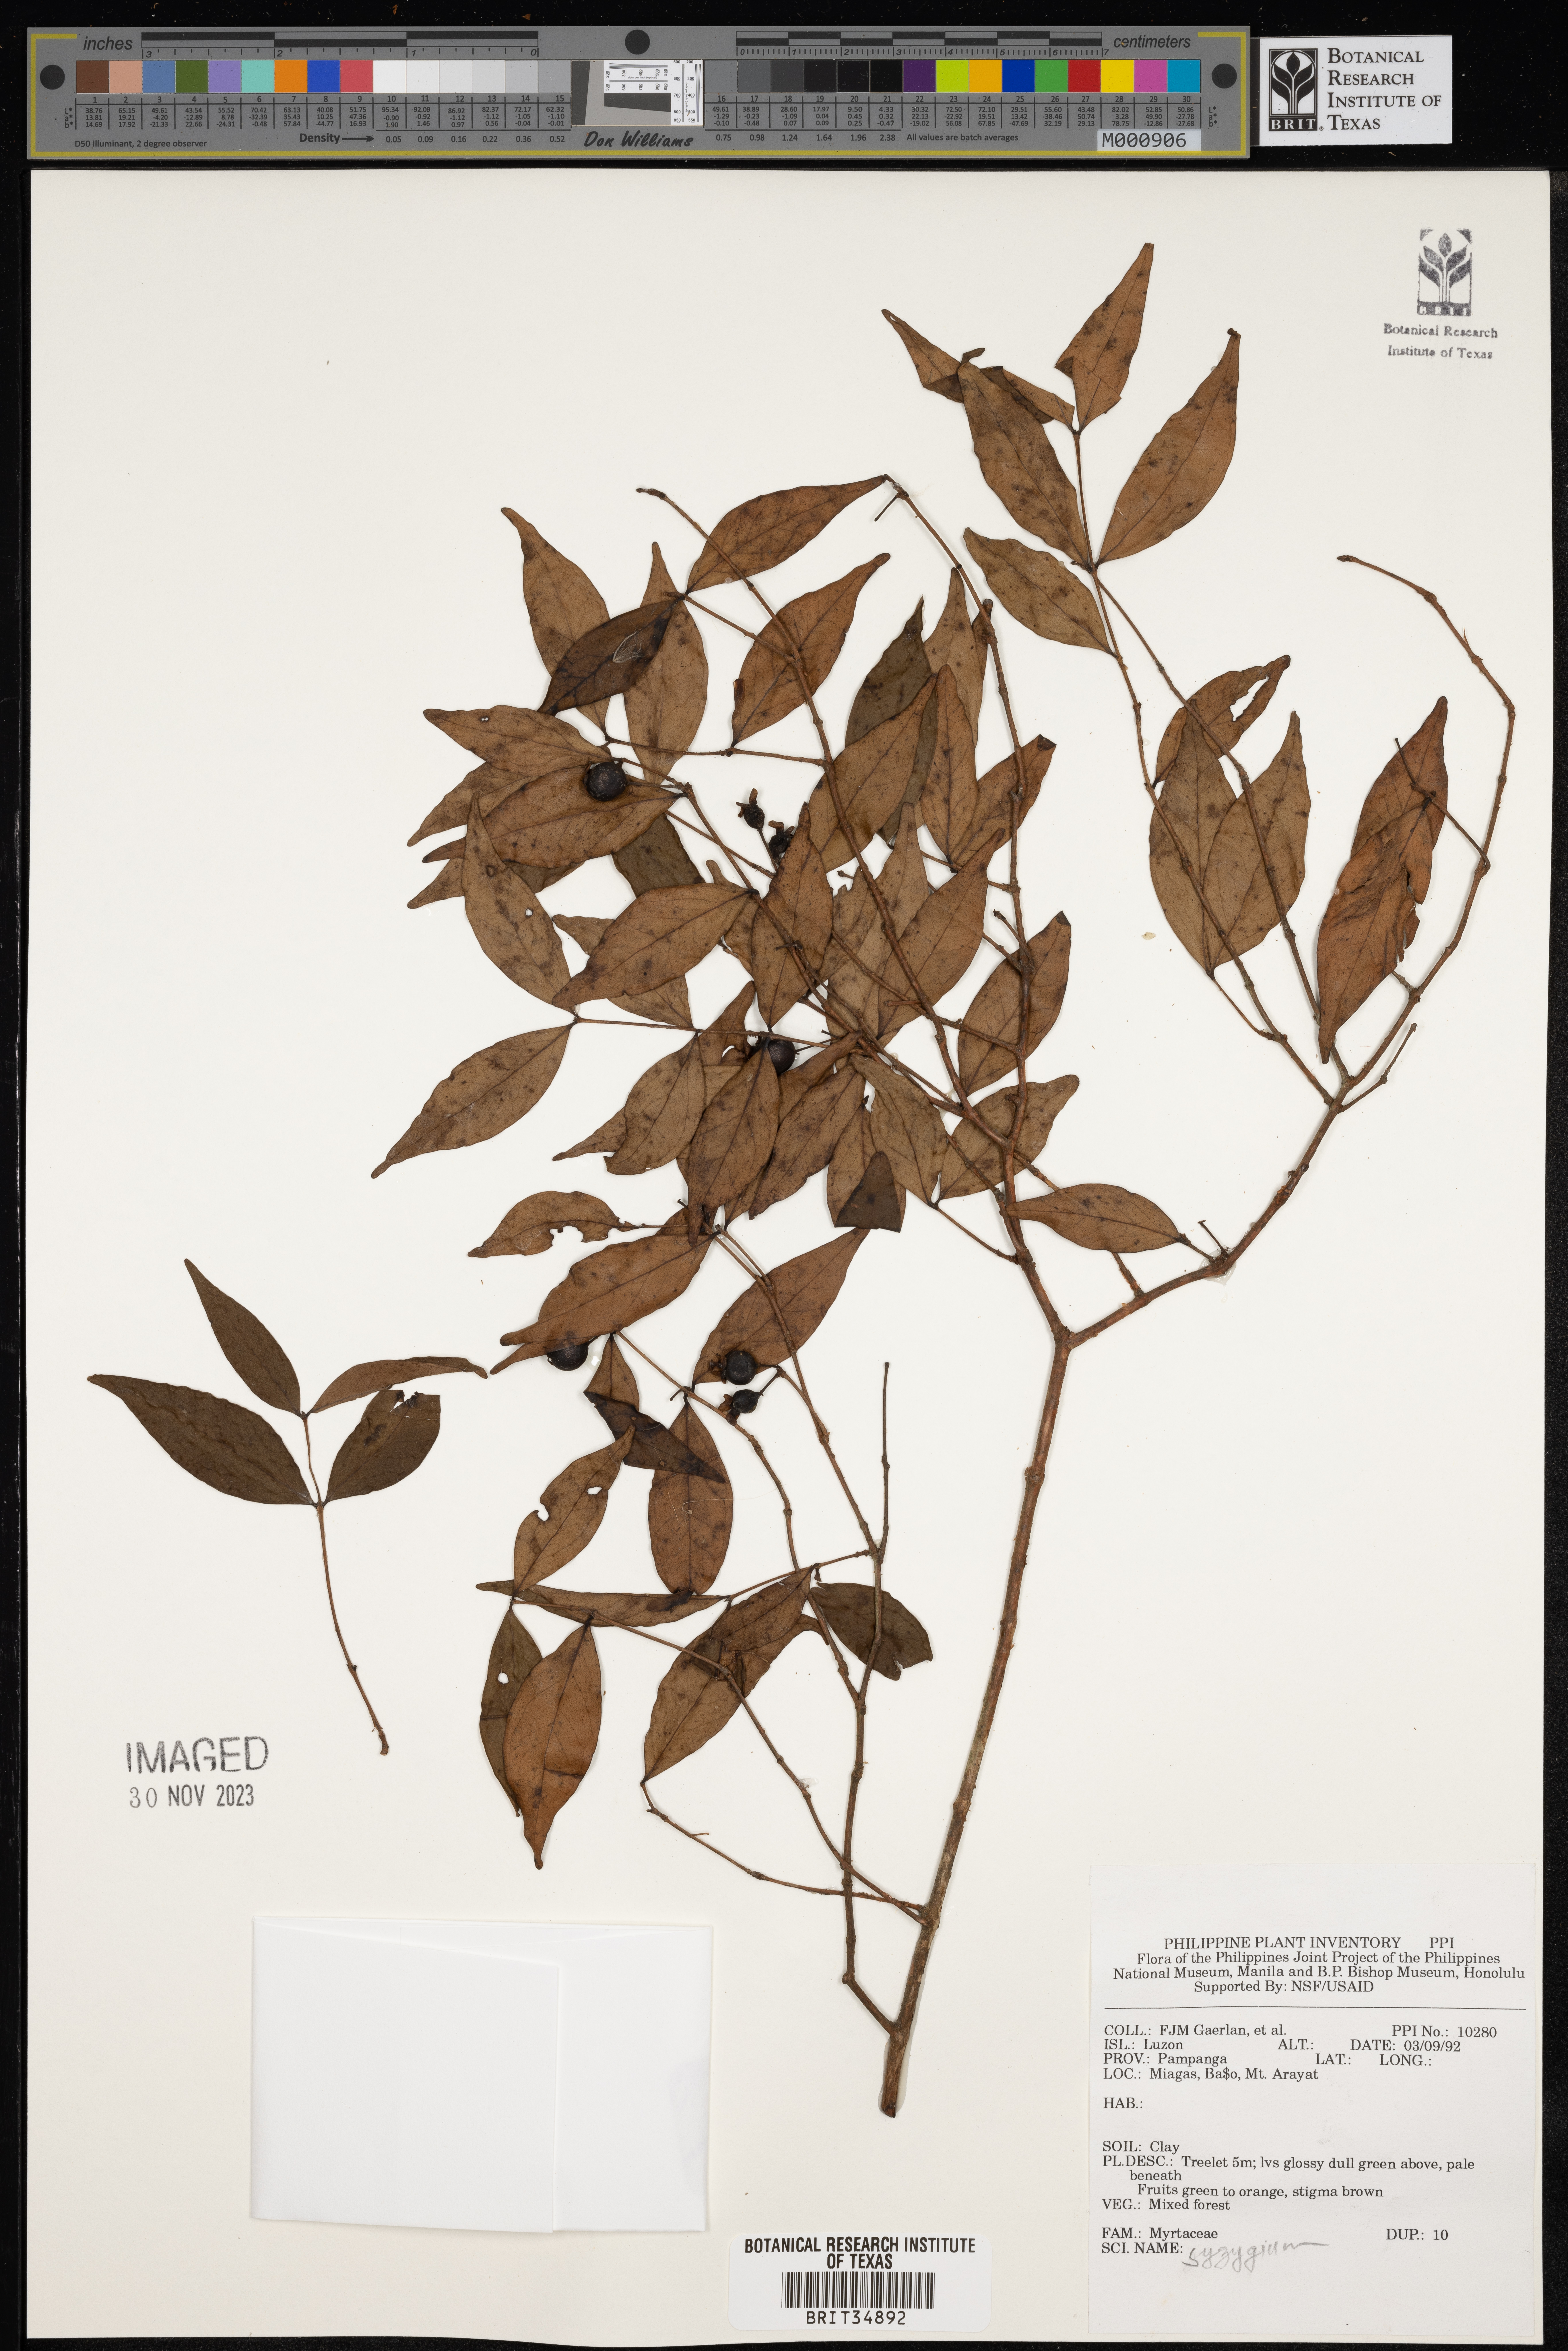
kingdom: Plantae
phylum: Tracheophyta
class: Magnoliopsida
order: Myrtales
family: Myrtaceae
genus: Syzygium
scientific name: Syzygium
